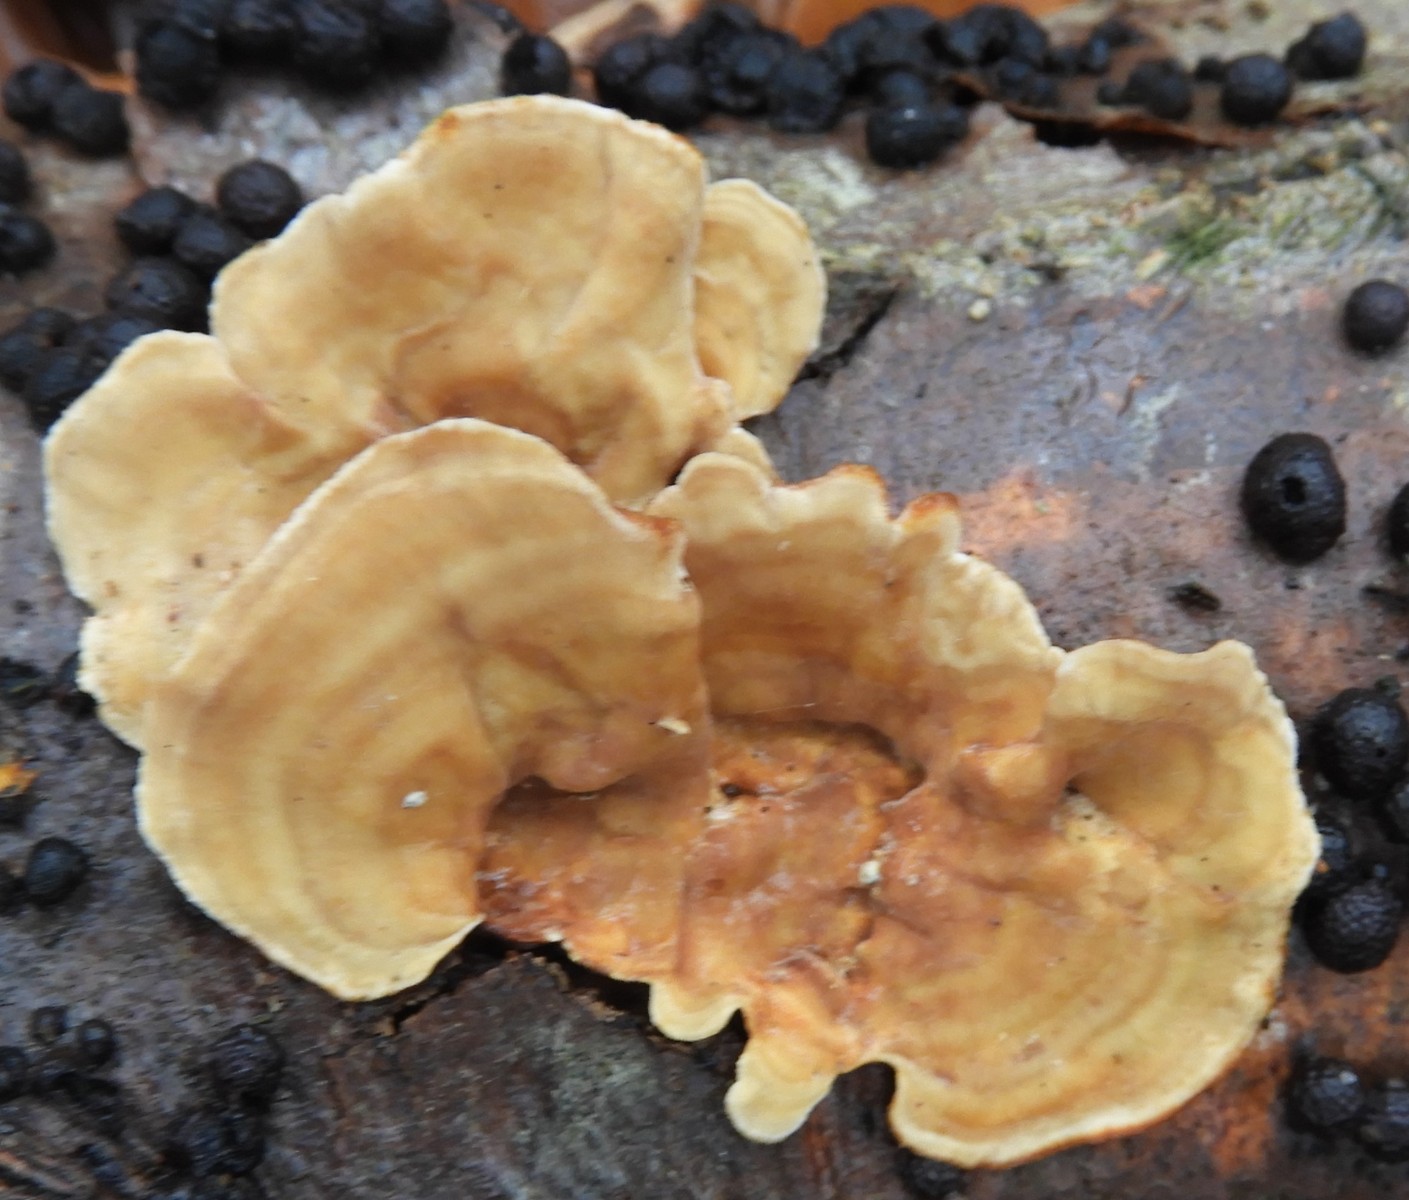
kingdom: Fungi
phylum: Basidiomycota
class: Agaricomycetes
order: Russulales
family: Stereaceae
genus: Stereum
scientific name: Stereum subtomentosum
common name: smuk lædersvamp
